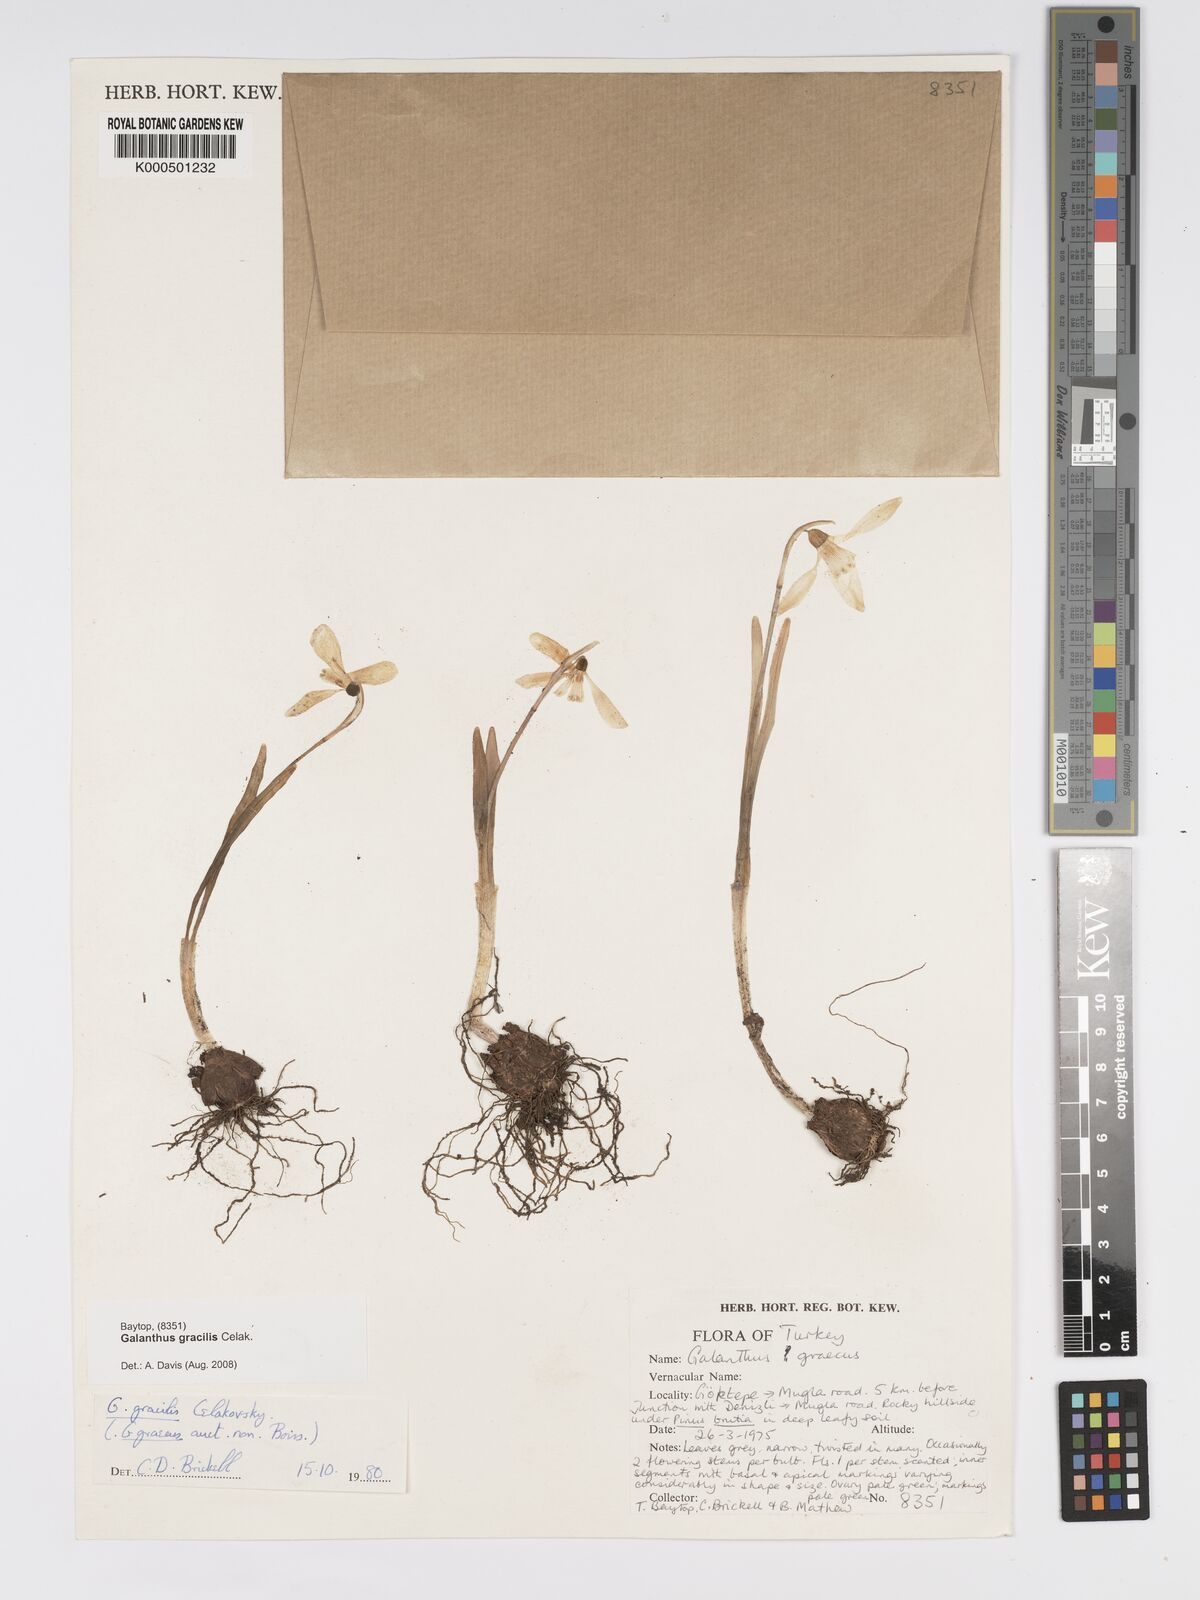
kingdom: Plantae
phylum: Tracheophyta
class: Liliopsida
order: Asparagales
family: Amaryllidaceae
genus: Galanthus
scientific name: Galanthus gracilis
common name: Snowdrop
